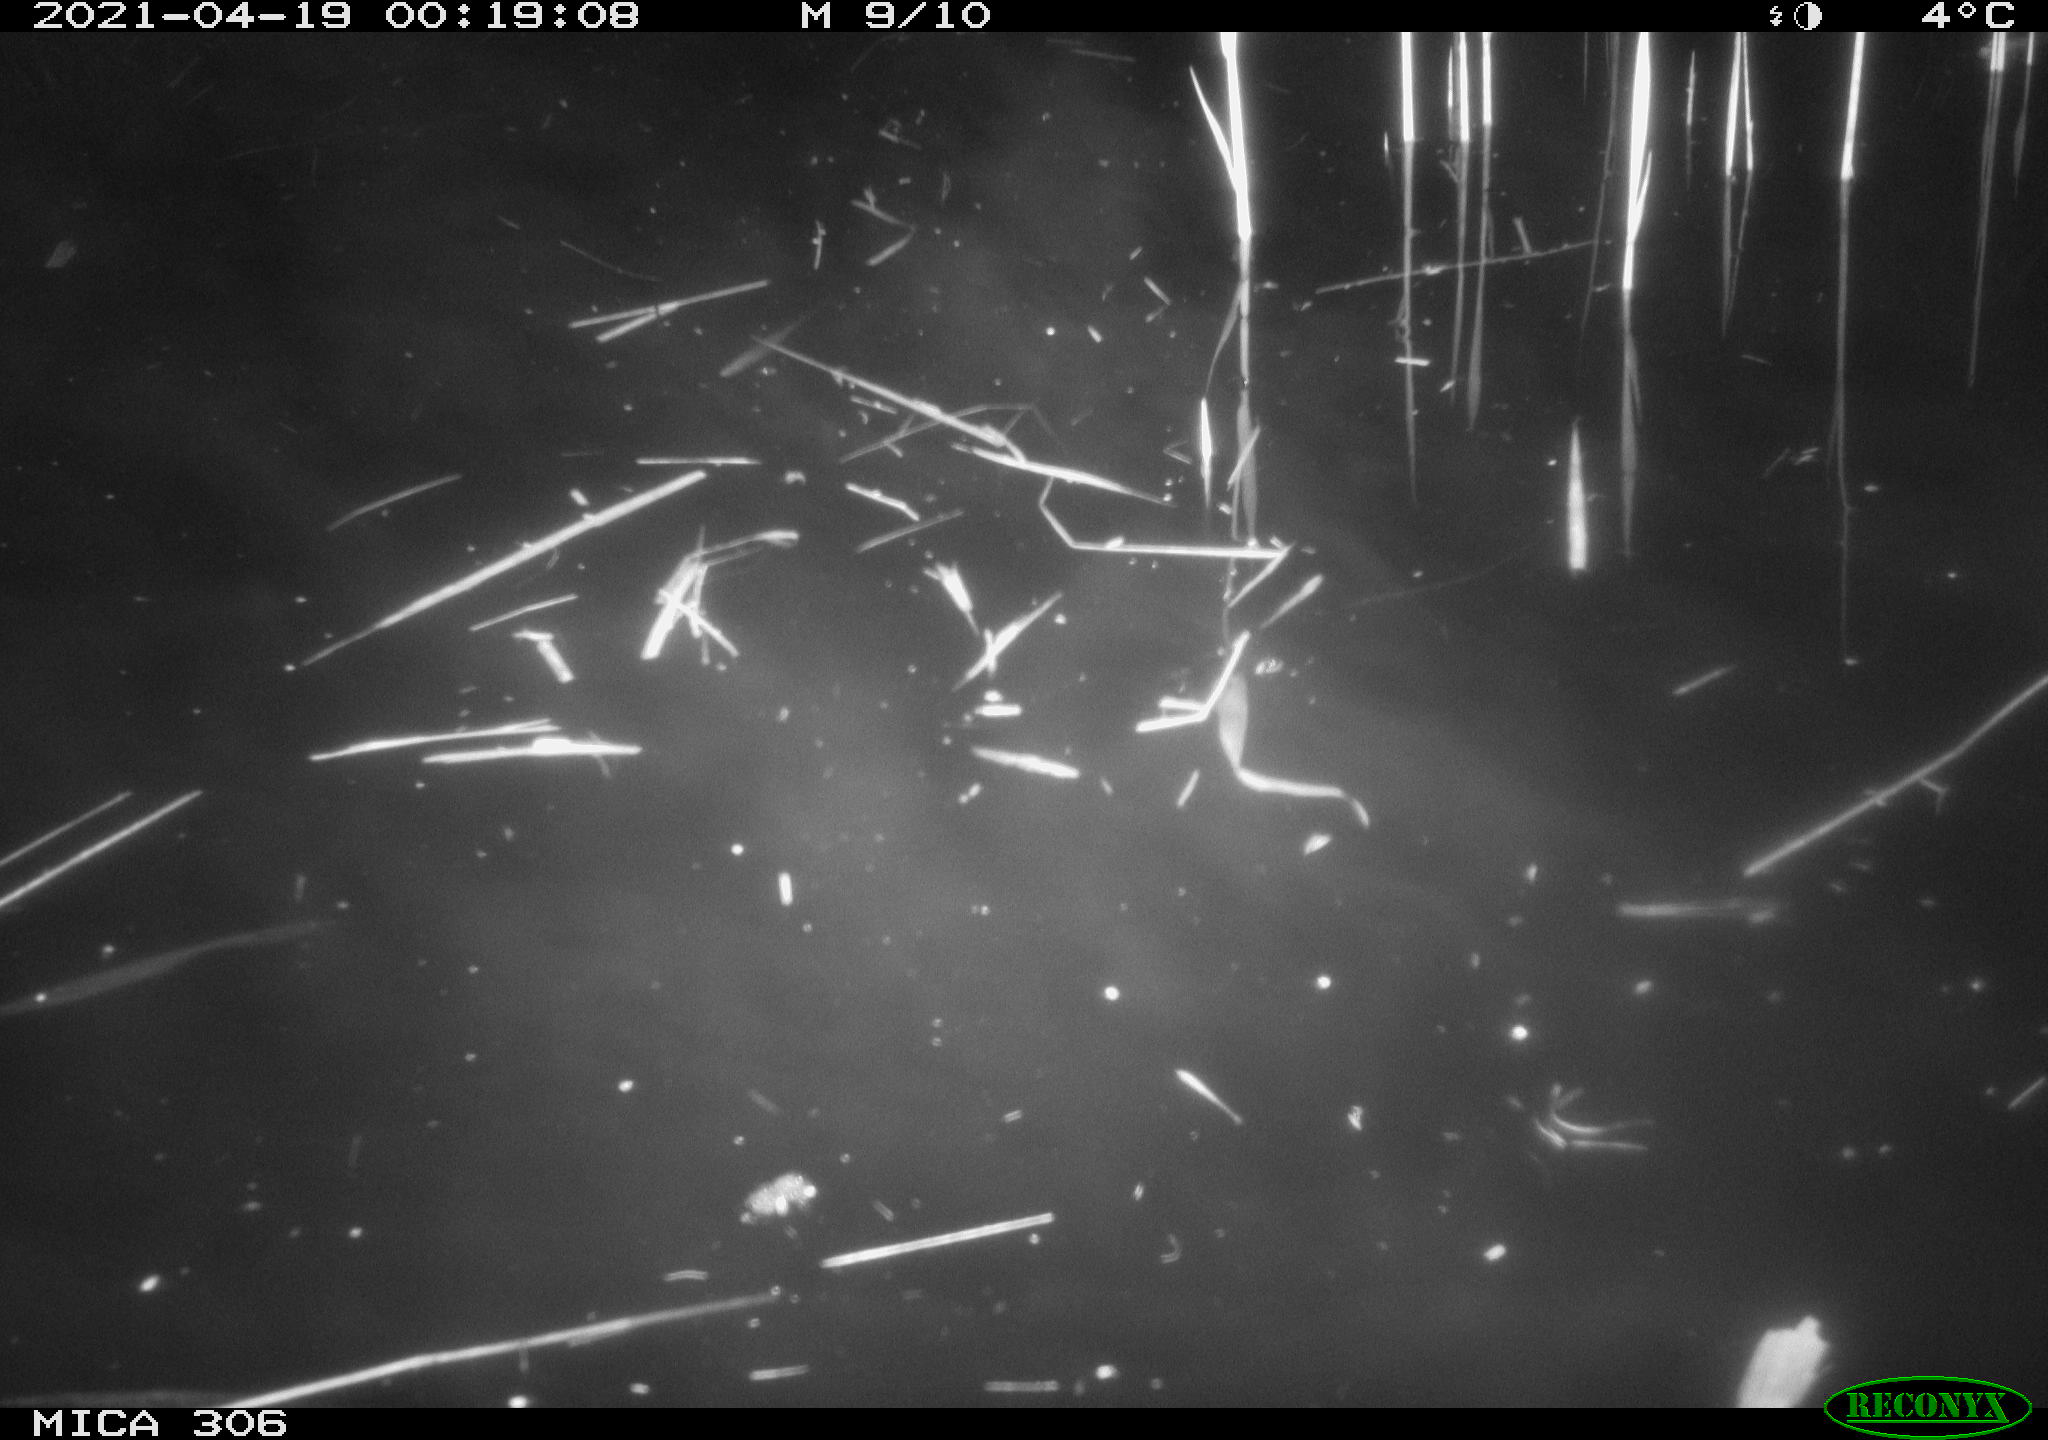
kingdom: Animalia
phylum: Chordata
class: Aves
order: Anseriformes
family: Anatidae
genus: Anas
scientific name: Anas
